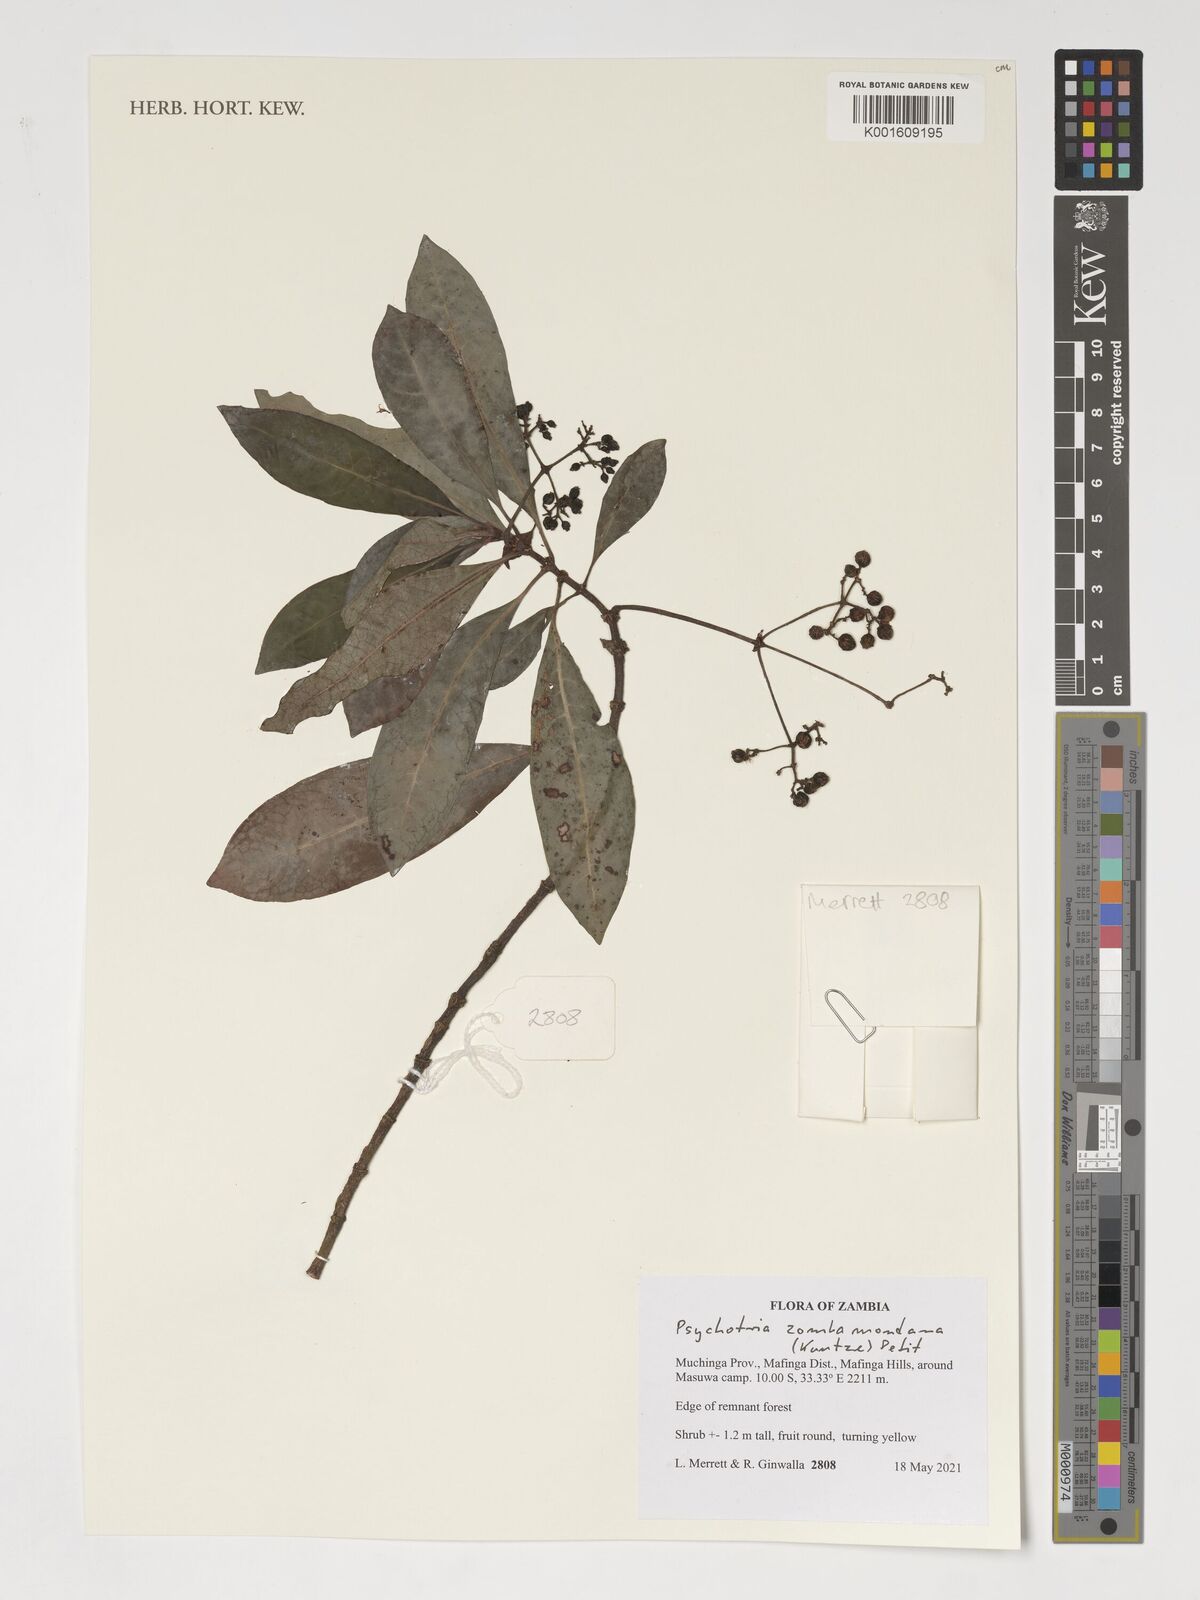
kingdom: Plantae
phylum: Tracheophyta
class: Magnoliopsida
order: Gentianales
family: Rubiaceae
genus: Psychotria
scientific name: Psychotria zombamontana
